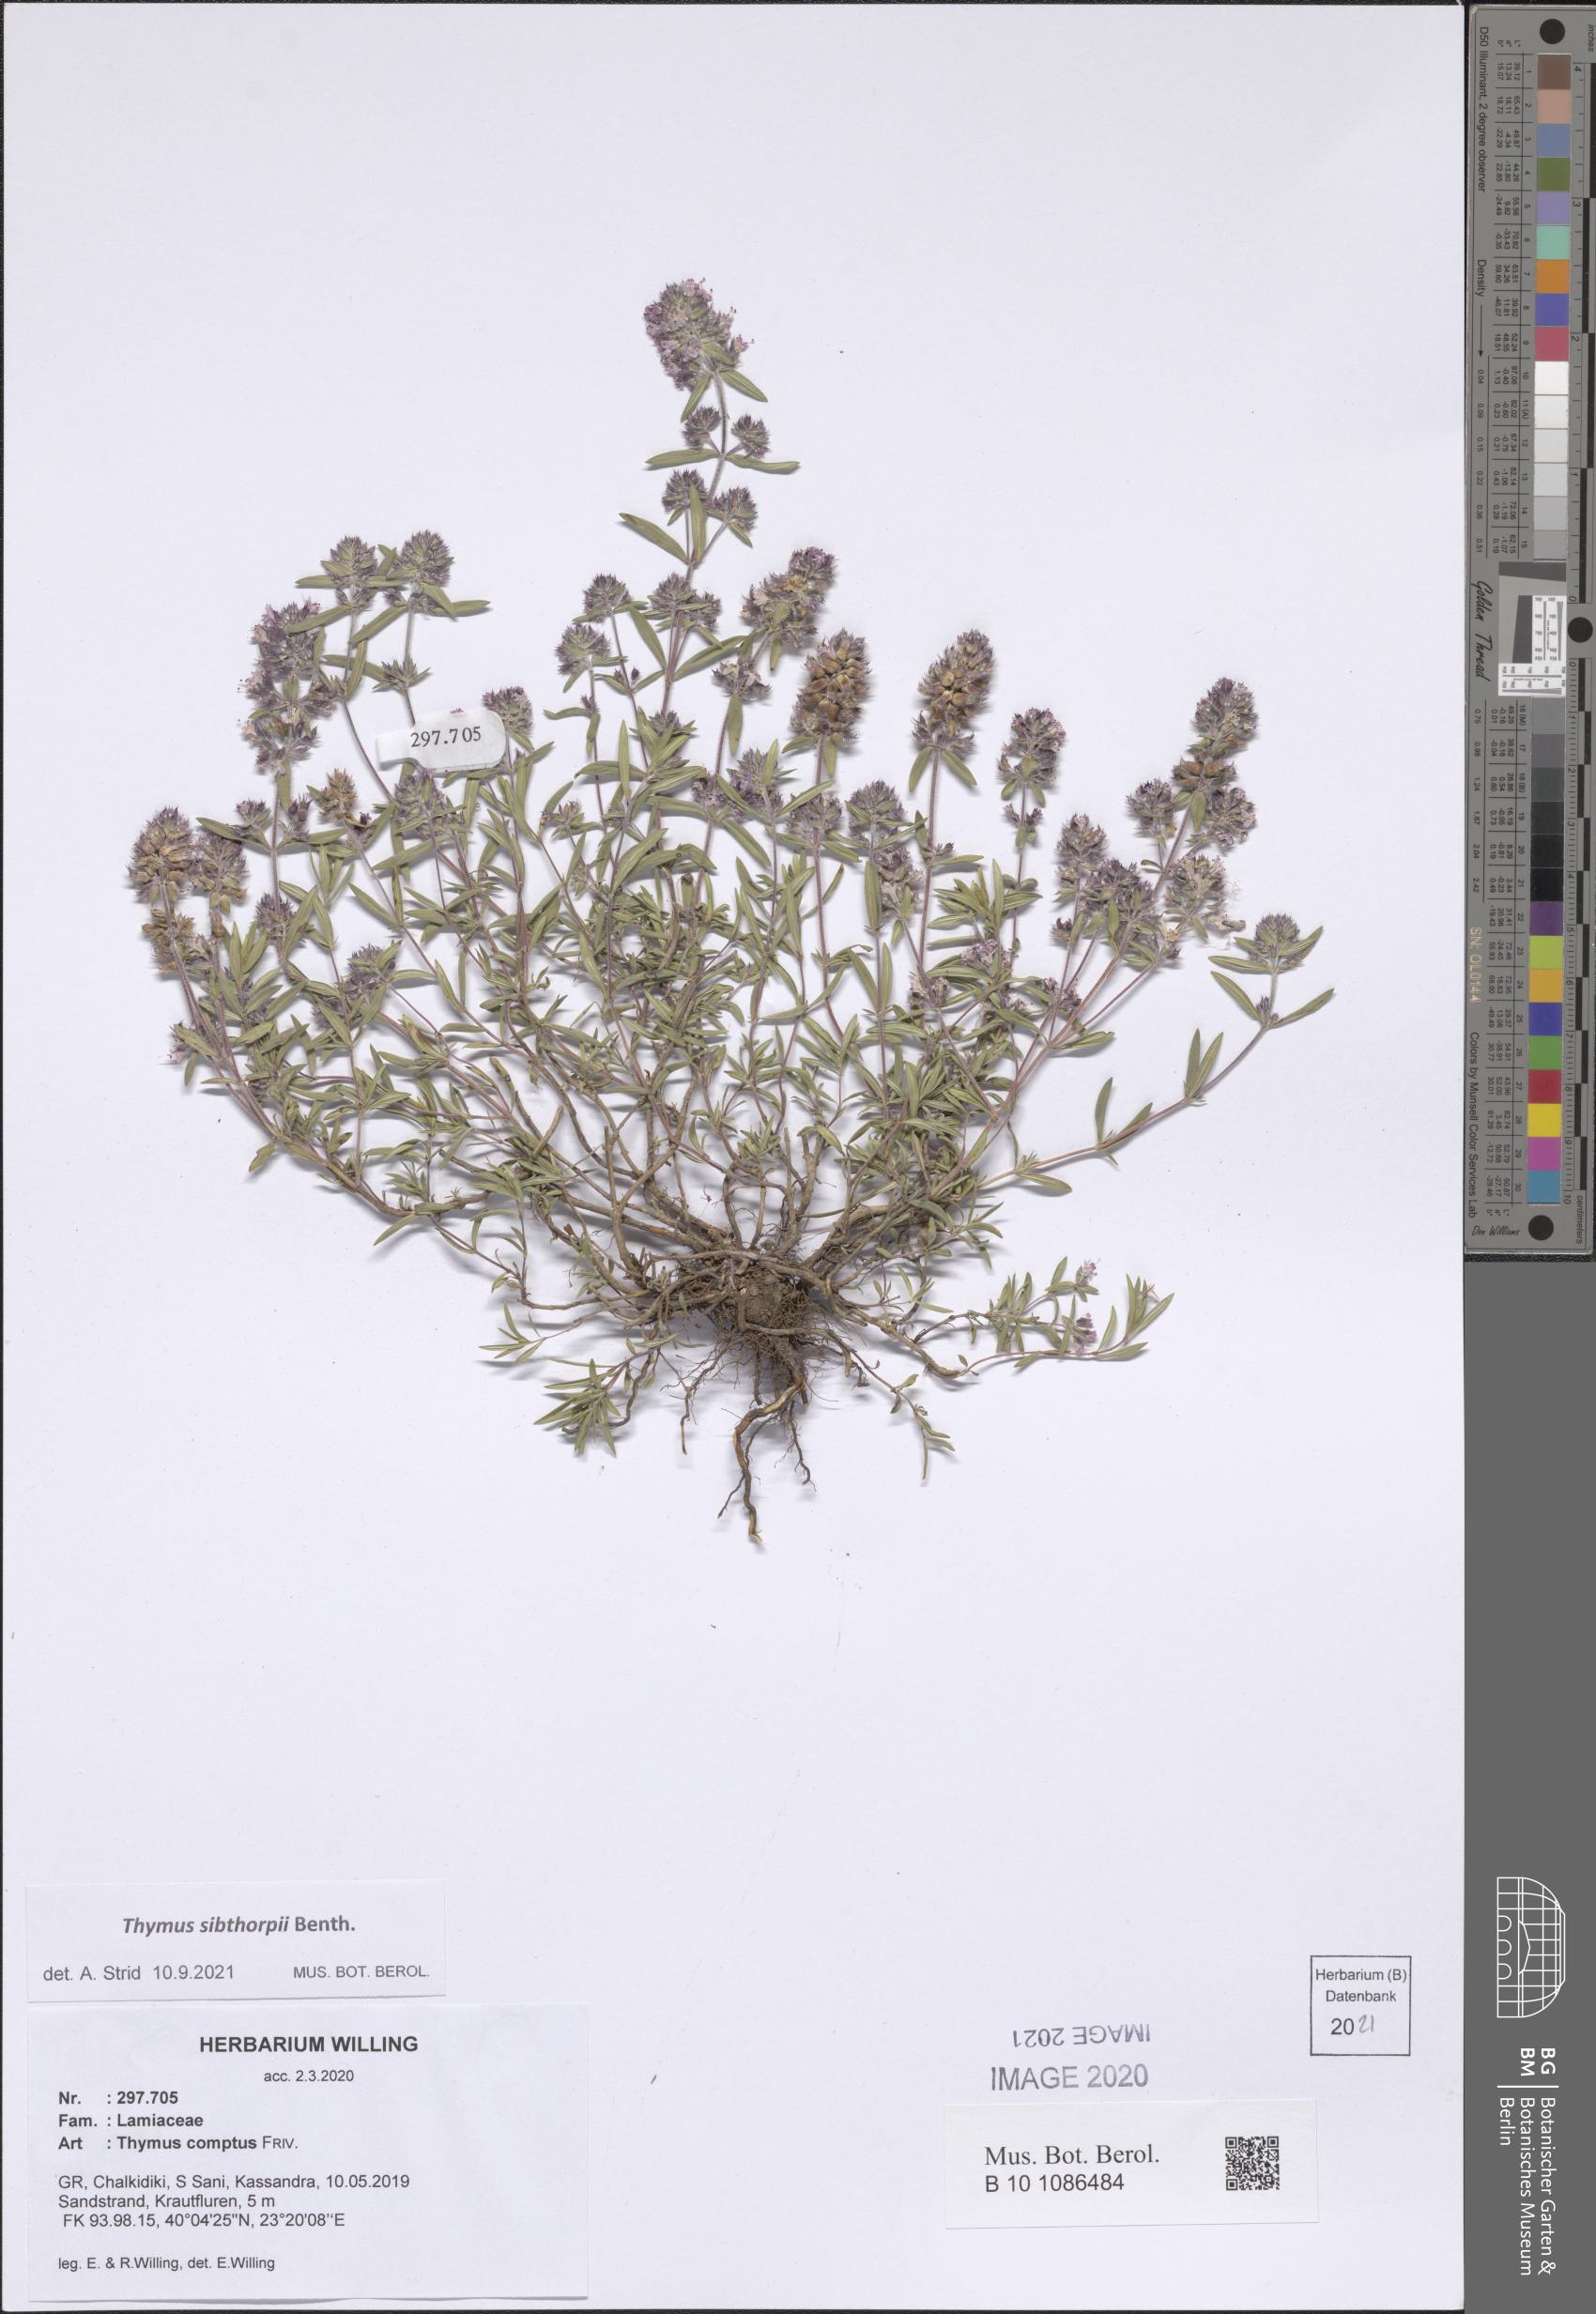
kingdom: Plantae
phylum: Tracheophyta
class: Magnoliopsida
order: Lamiales
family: Lamiaceae
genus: Thymus
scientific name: Thymus sibthorpii
